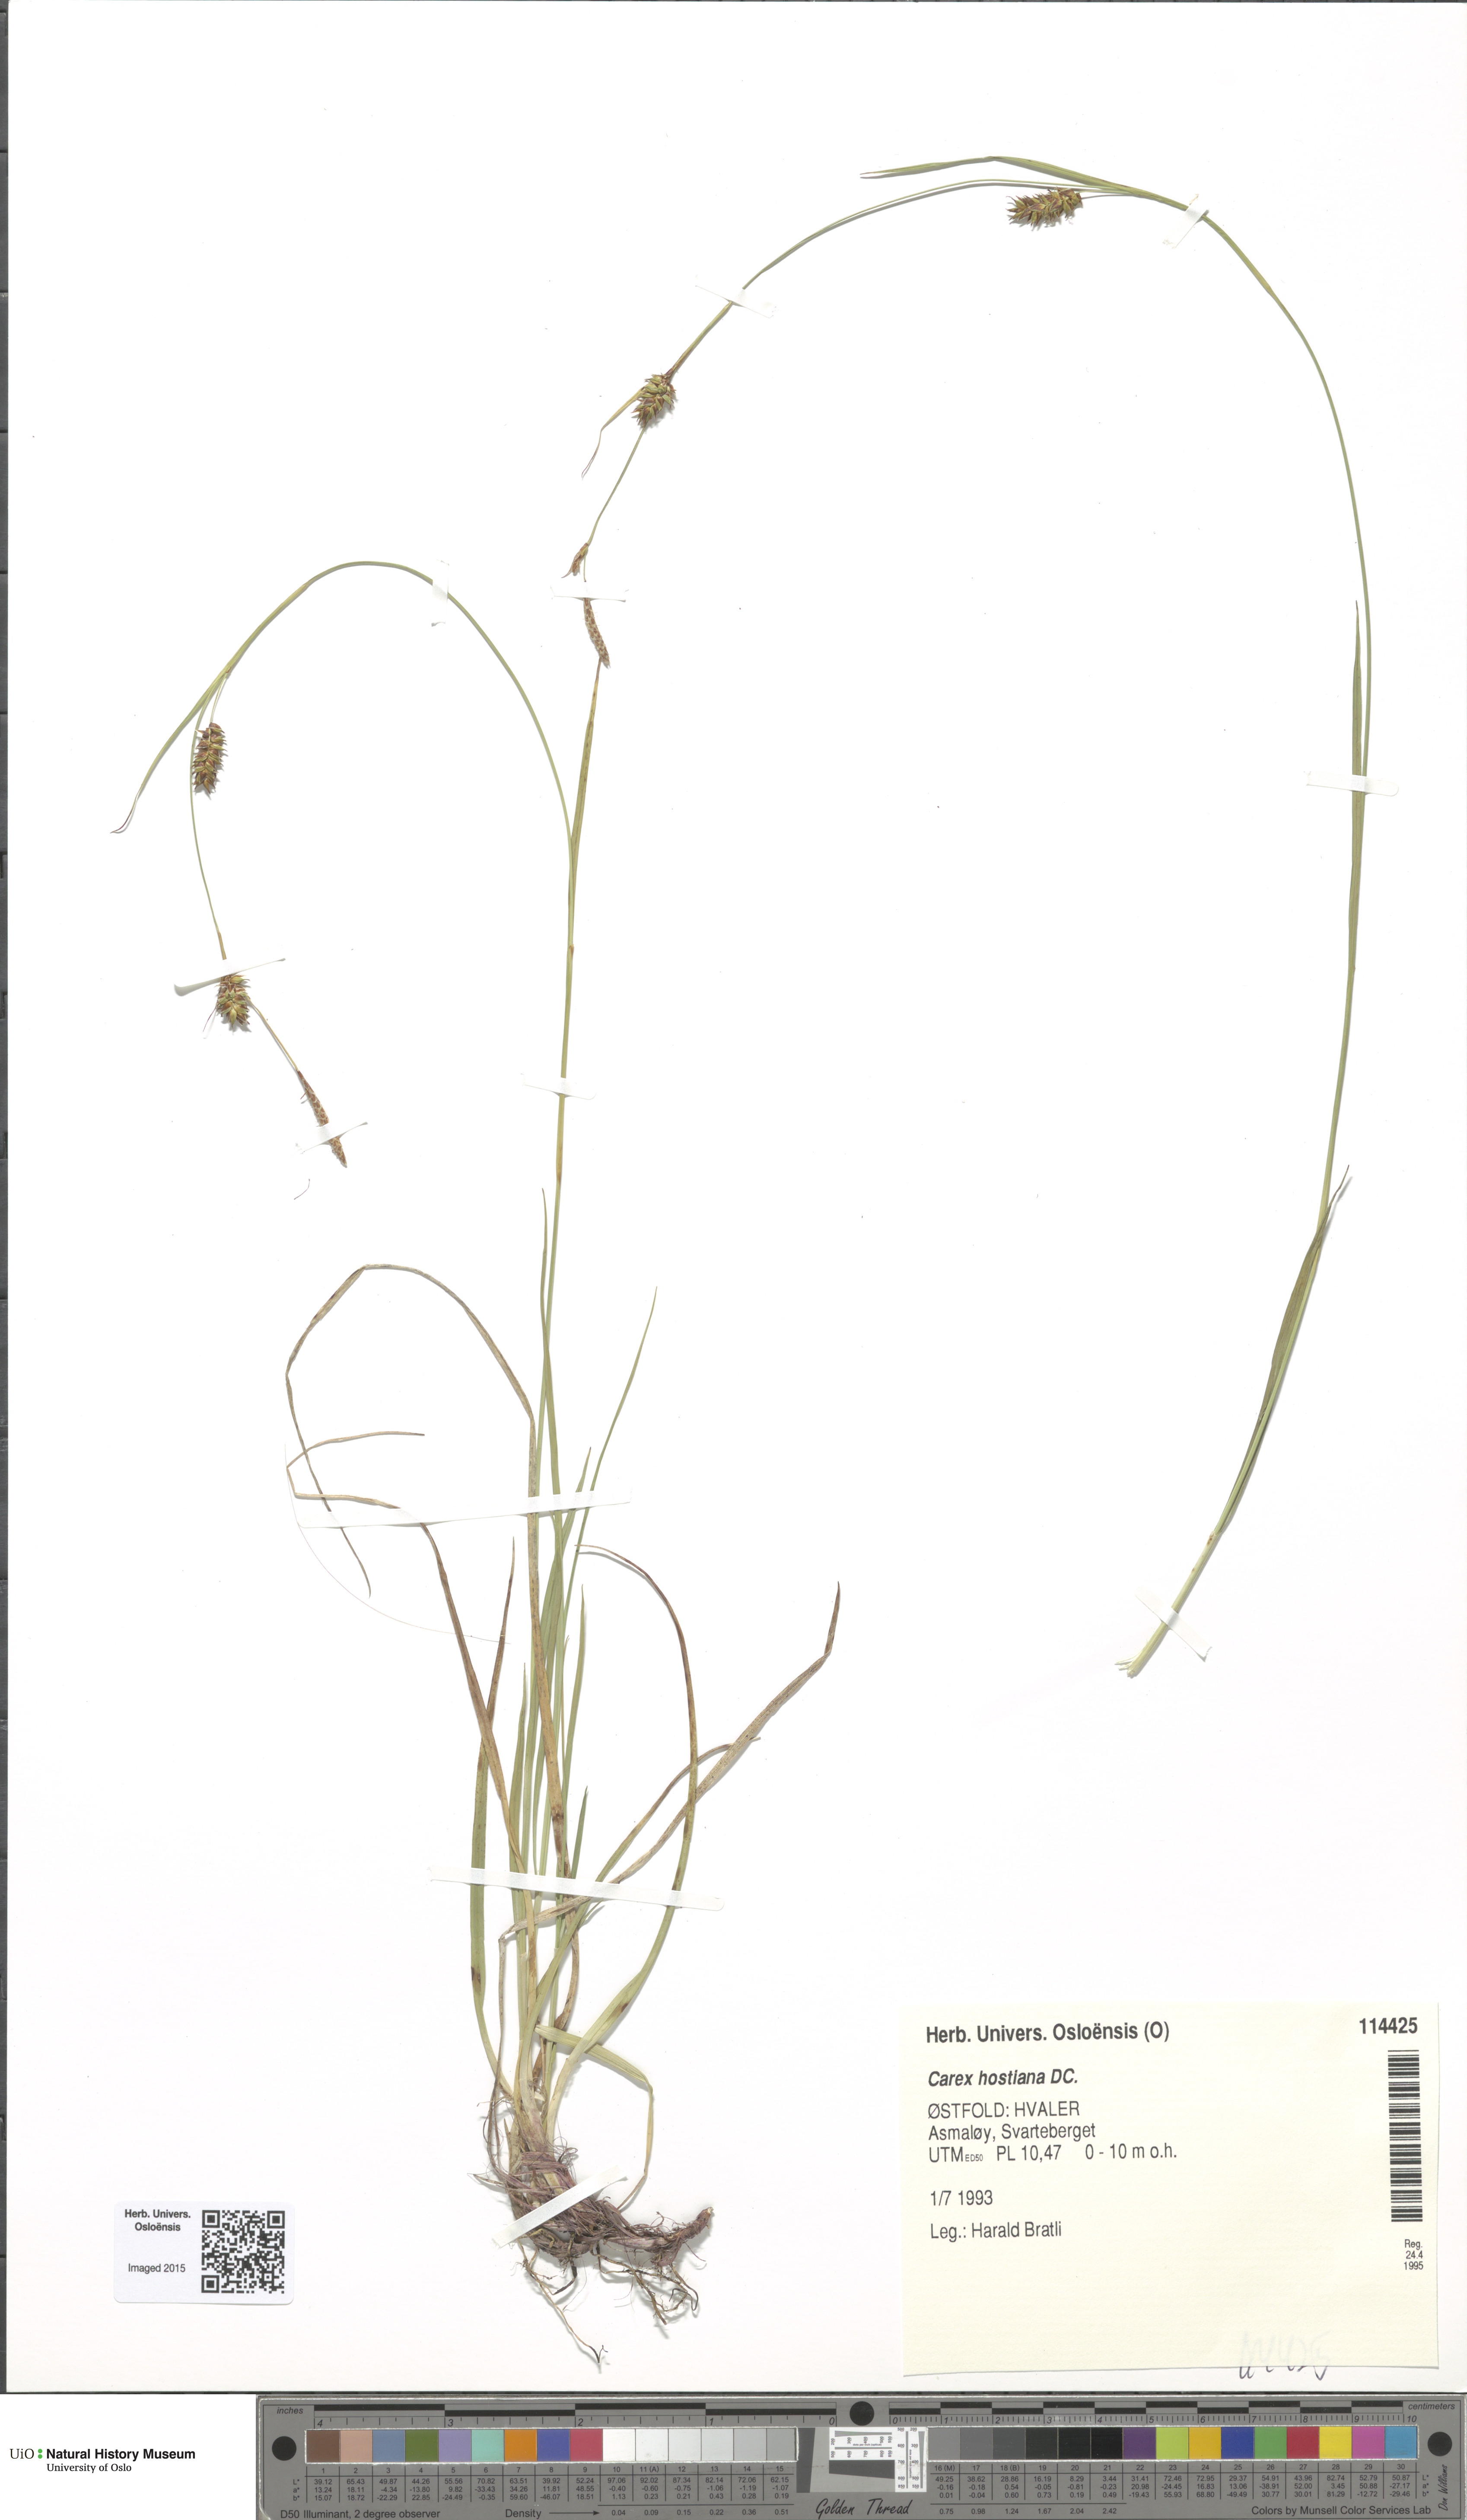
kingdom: Plantae
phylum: Tracheophyta
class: Liliopsida
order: Poales
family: Cyperaceae
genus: Carex
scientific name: Carex hostiana
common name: Tawny sedge
